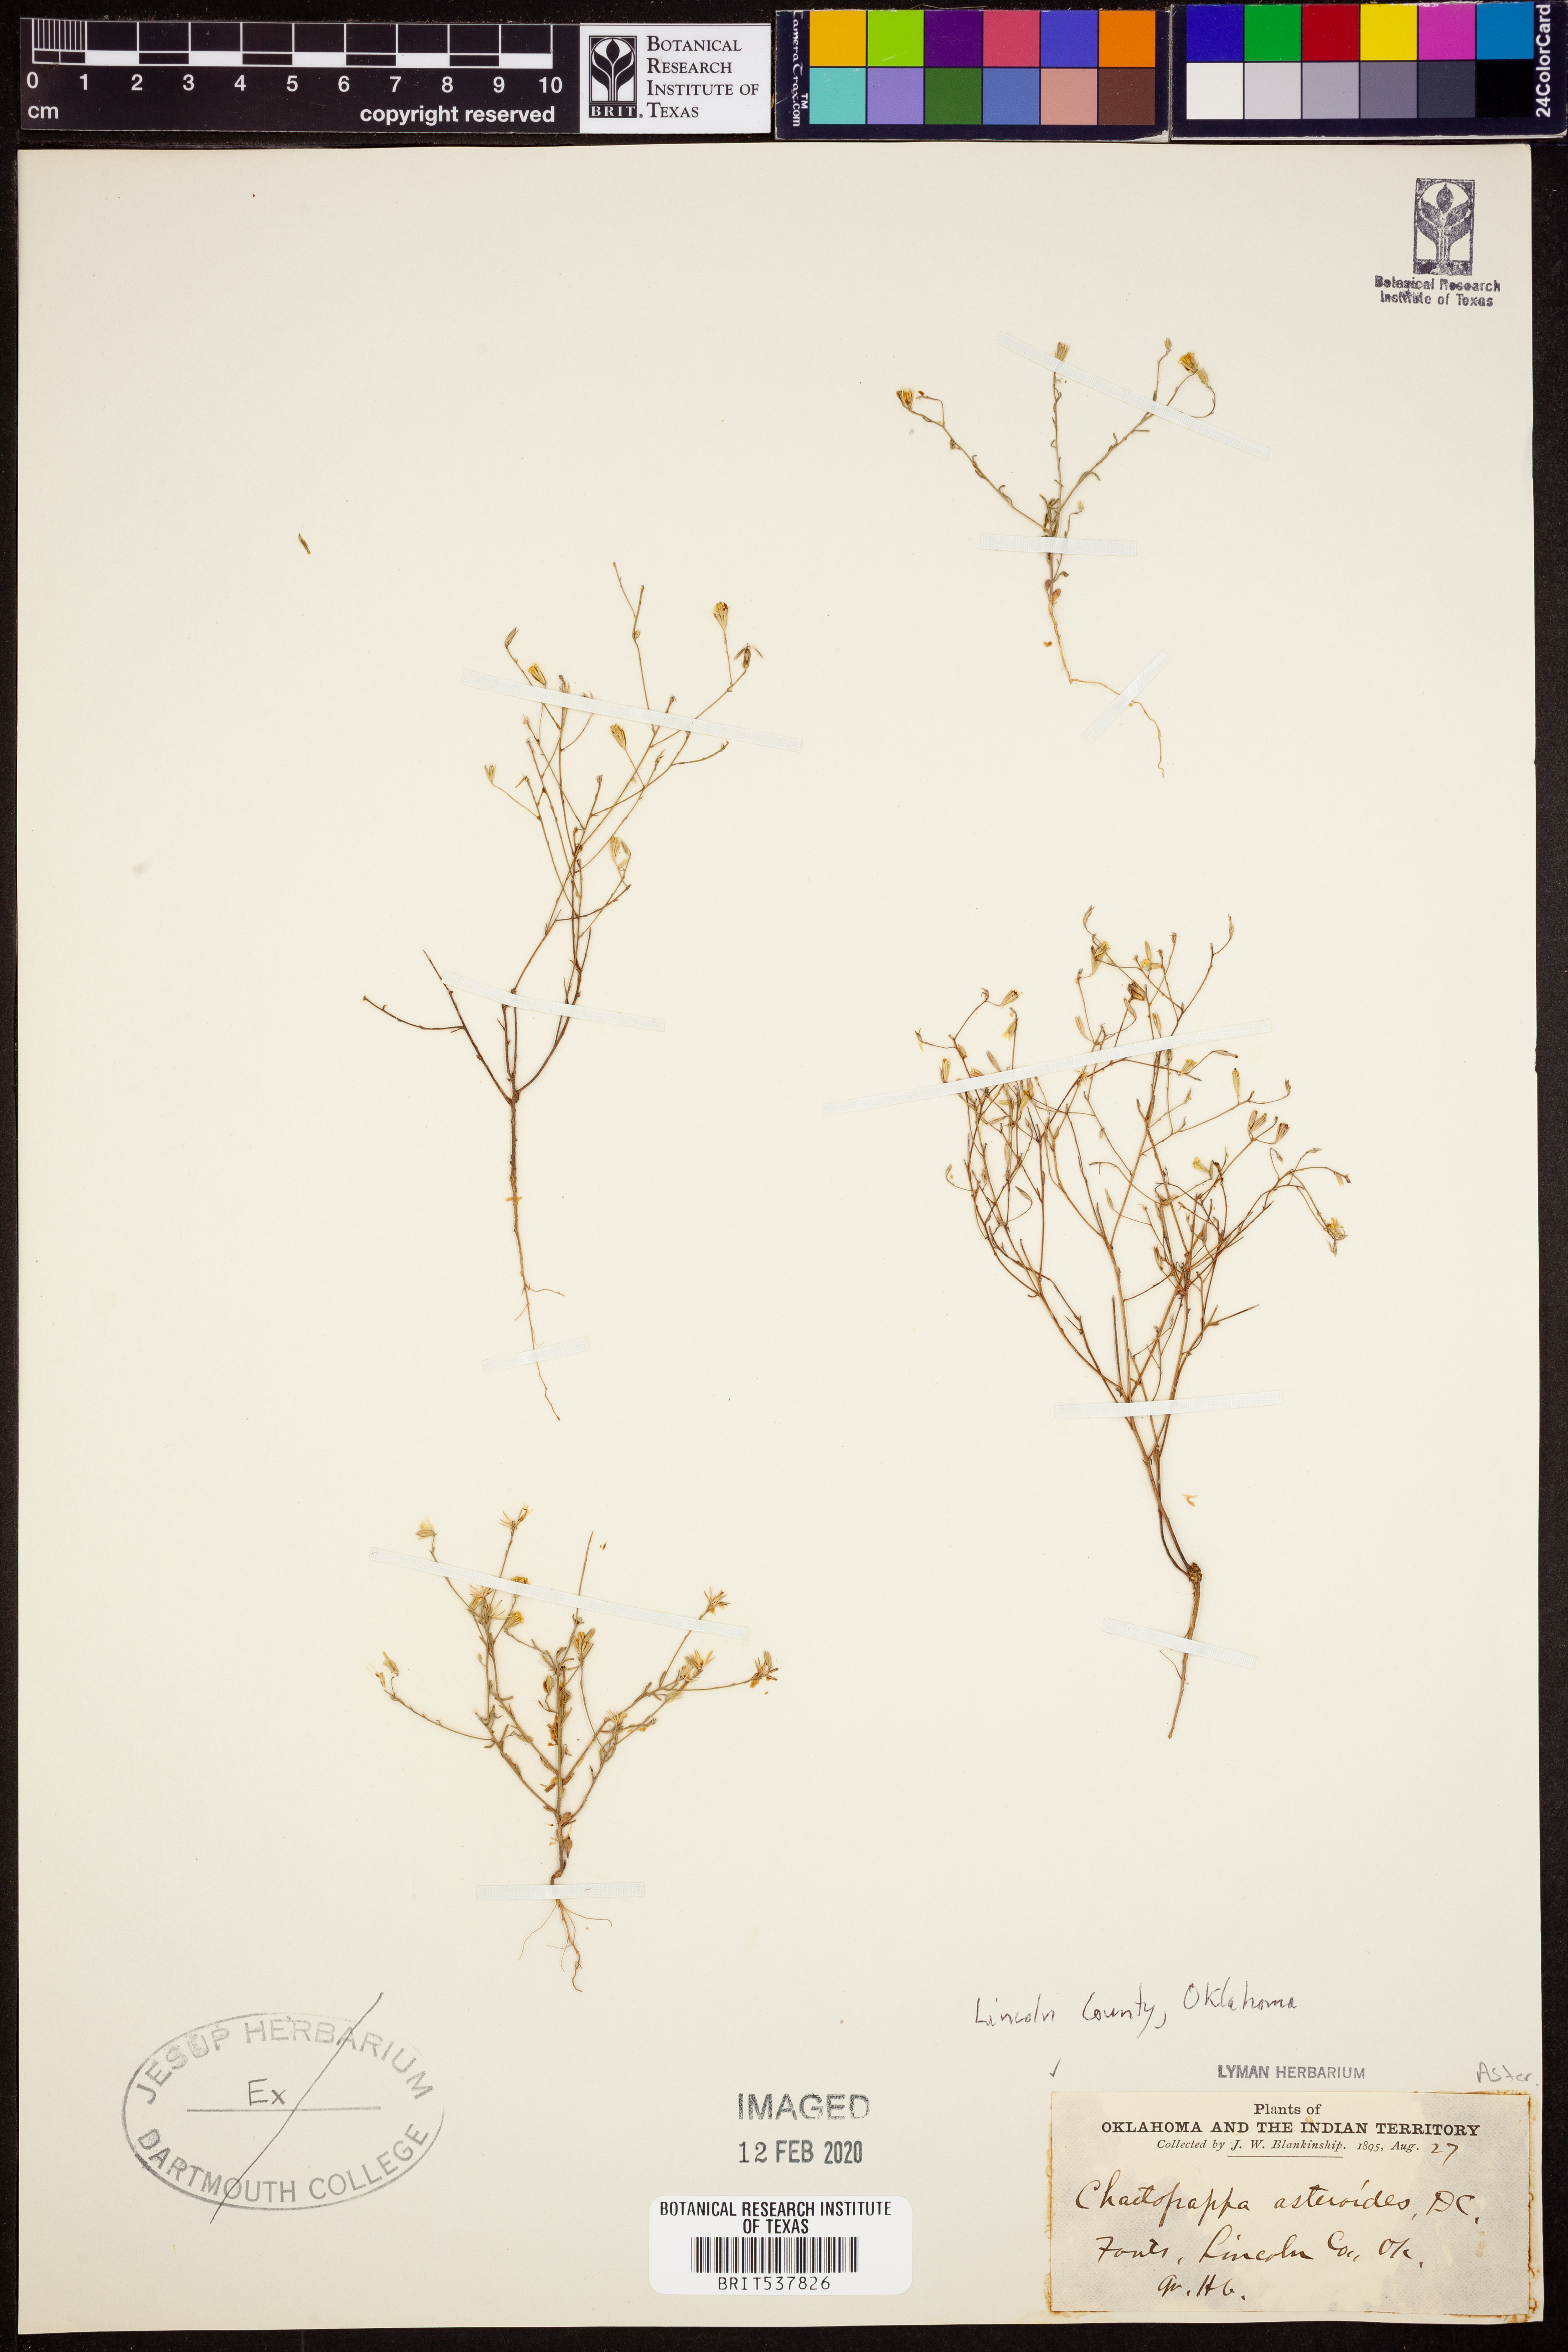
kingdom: Plantae
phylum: Tracheophyta
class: Magnoliopsida
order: Asterales
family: Asteraceae
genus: Chaetopappa
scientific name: Chaetopappa asteroides
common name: Tiny lazy daisy
